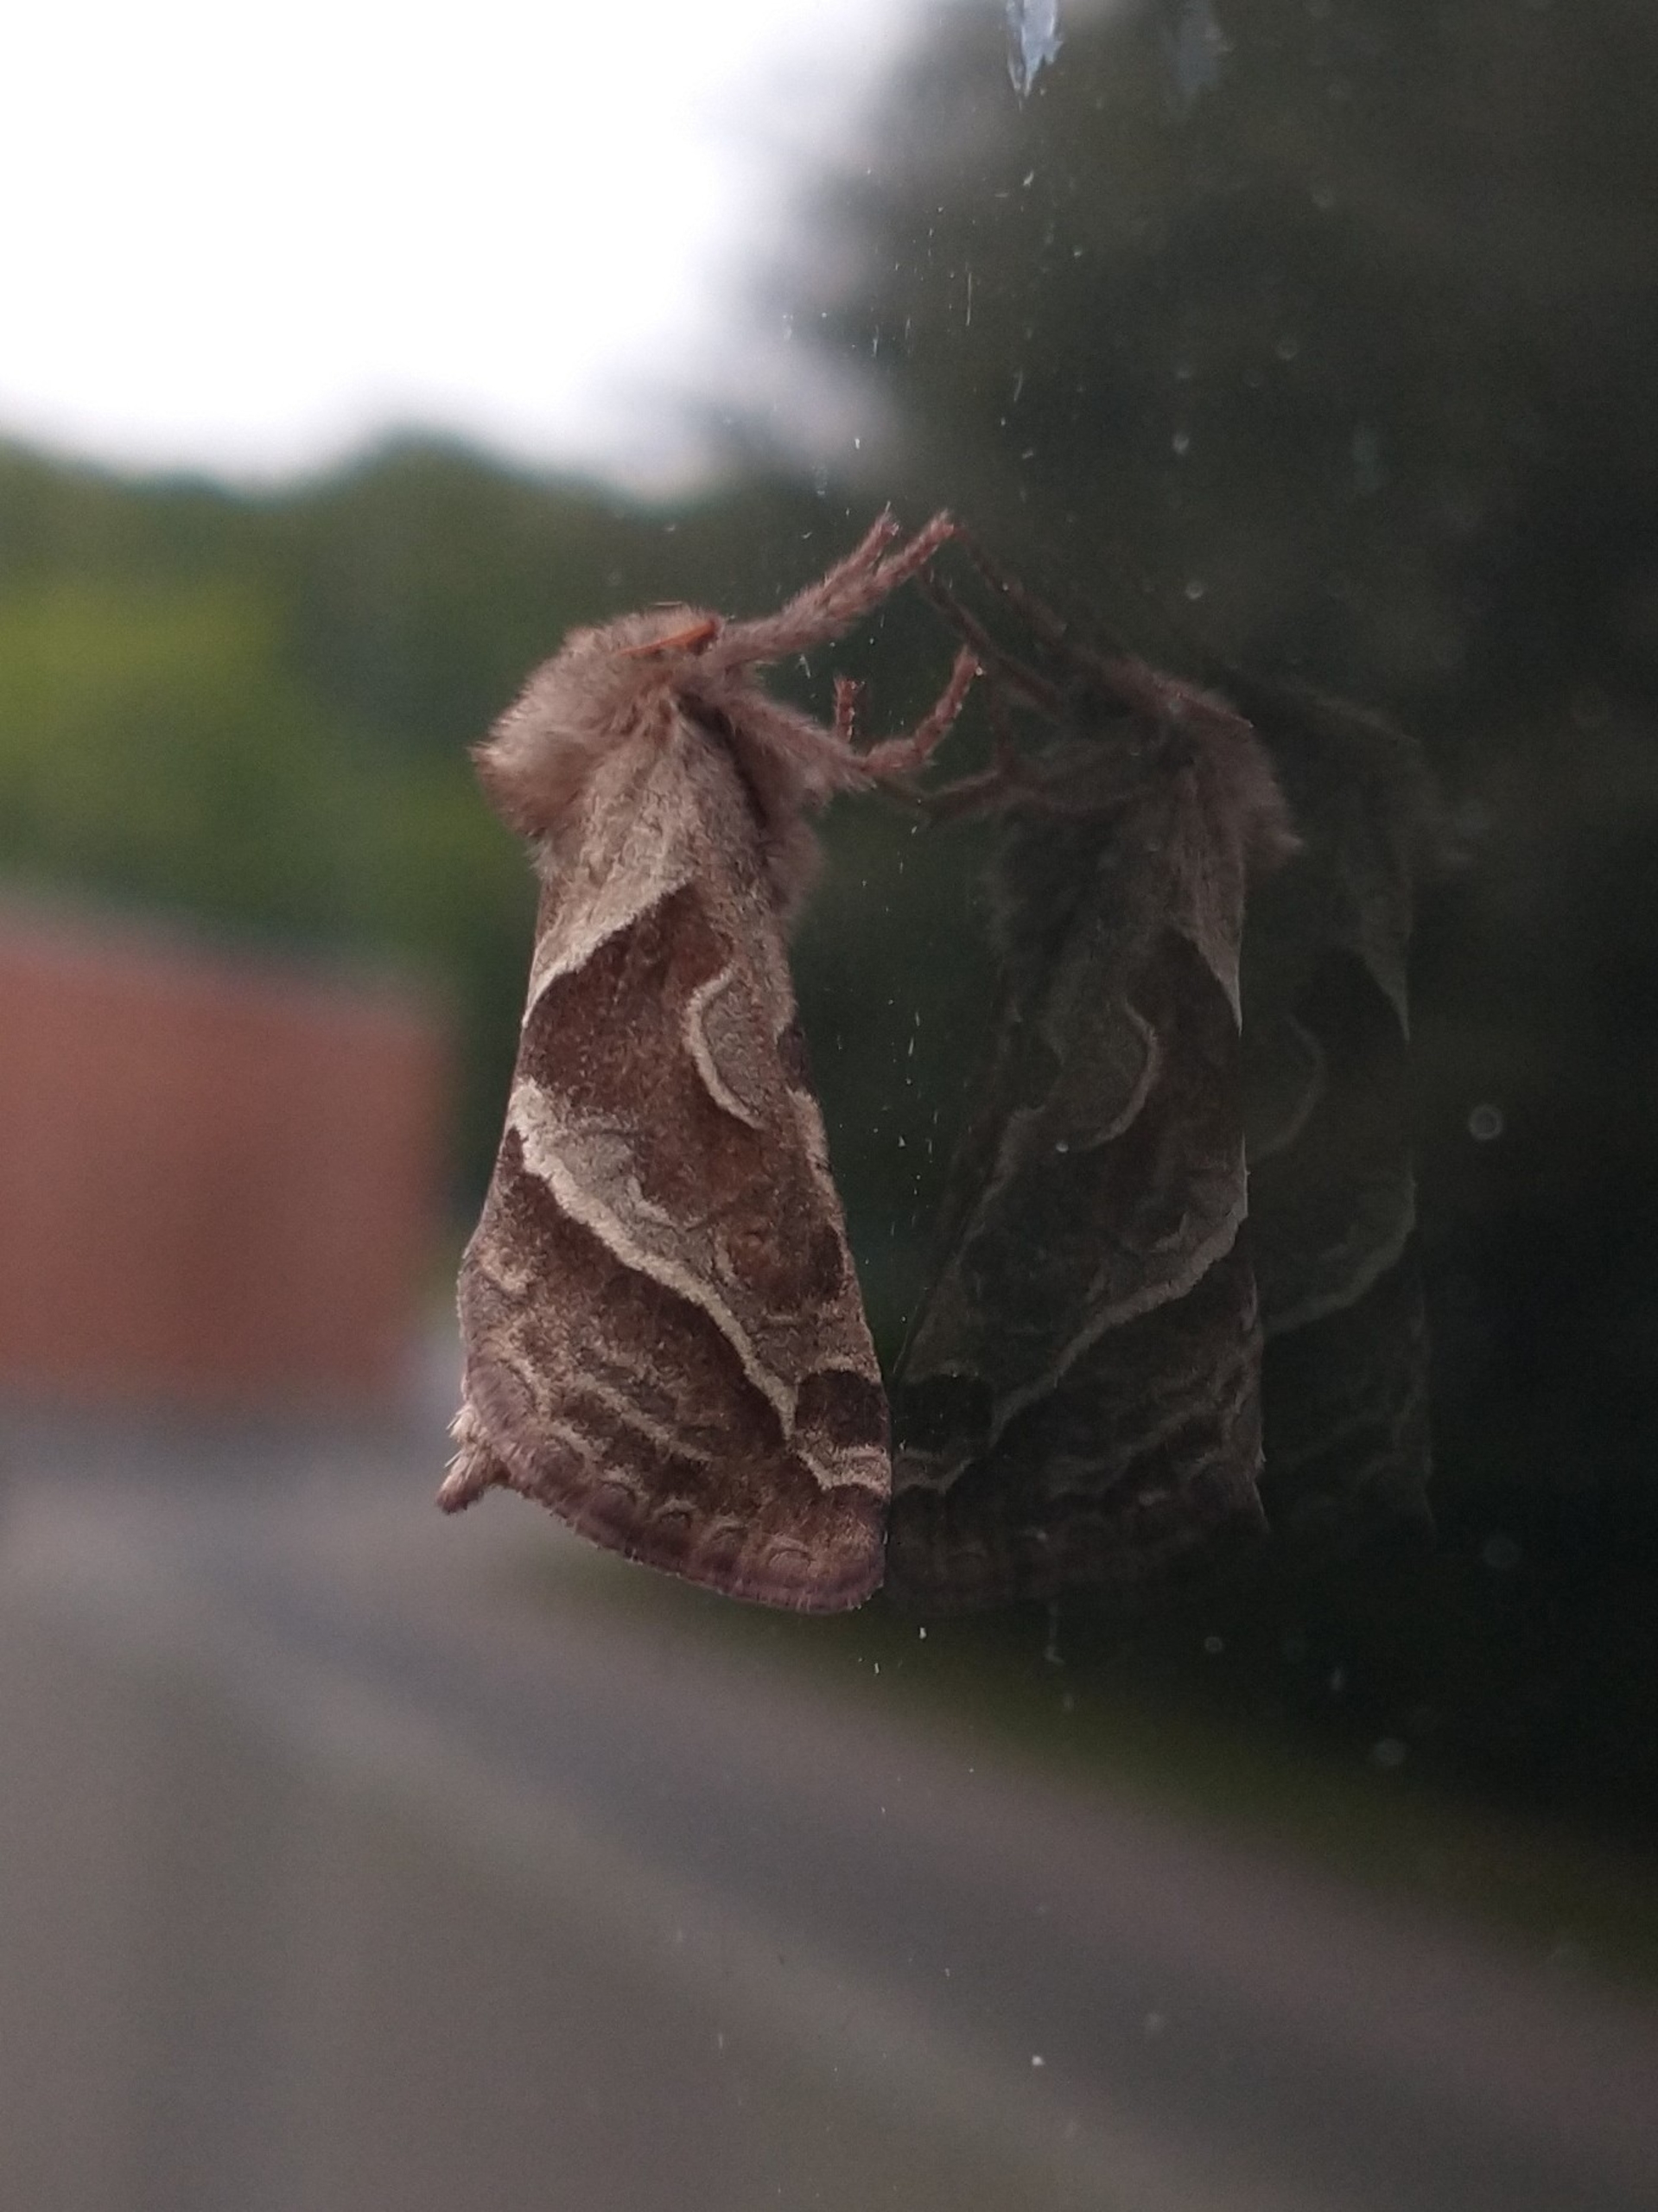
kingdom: Animalia
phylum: Arthropoda
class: Insecta
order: Lepidoptera
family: Hepialidae
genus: Triodia
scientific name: Triodia sylvina
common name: Skræpperodæder
